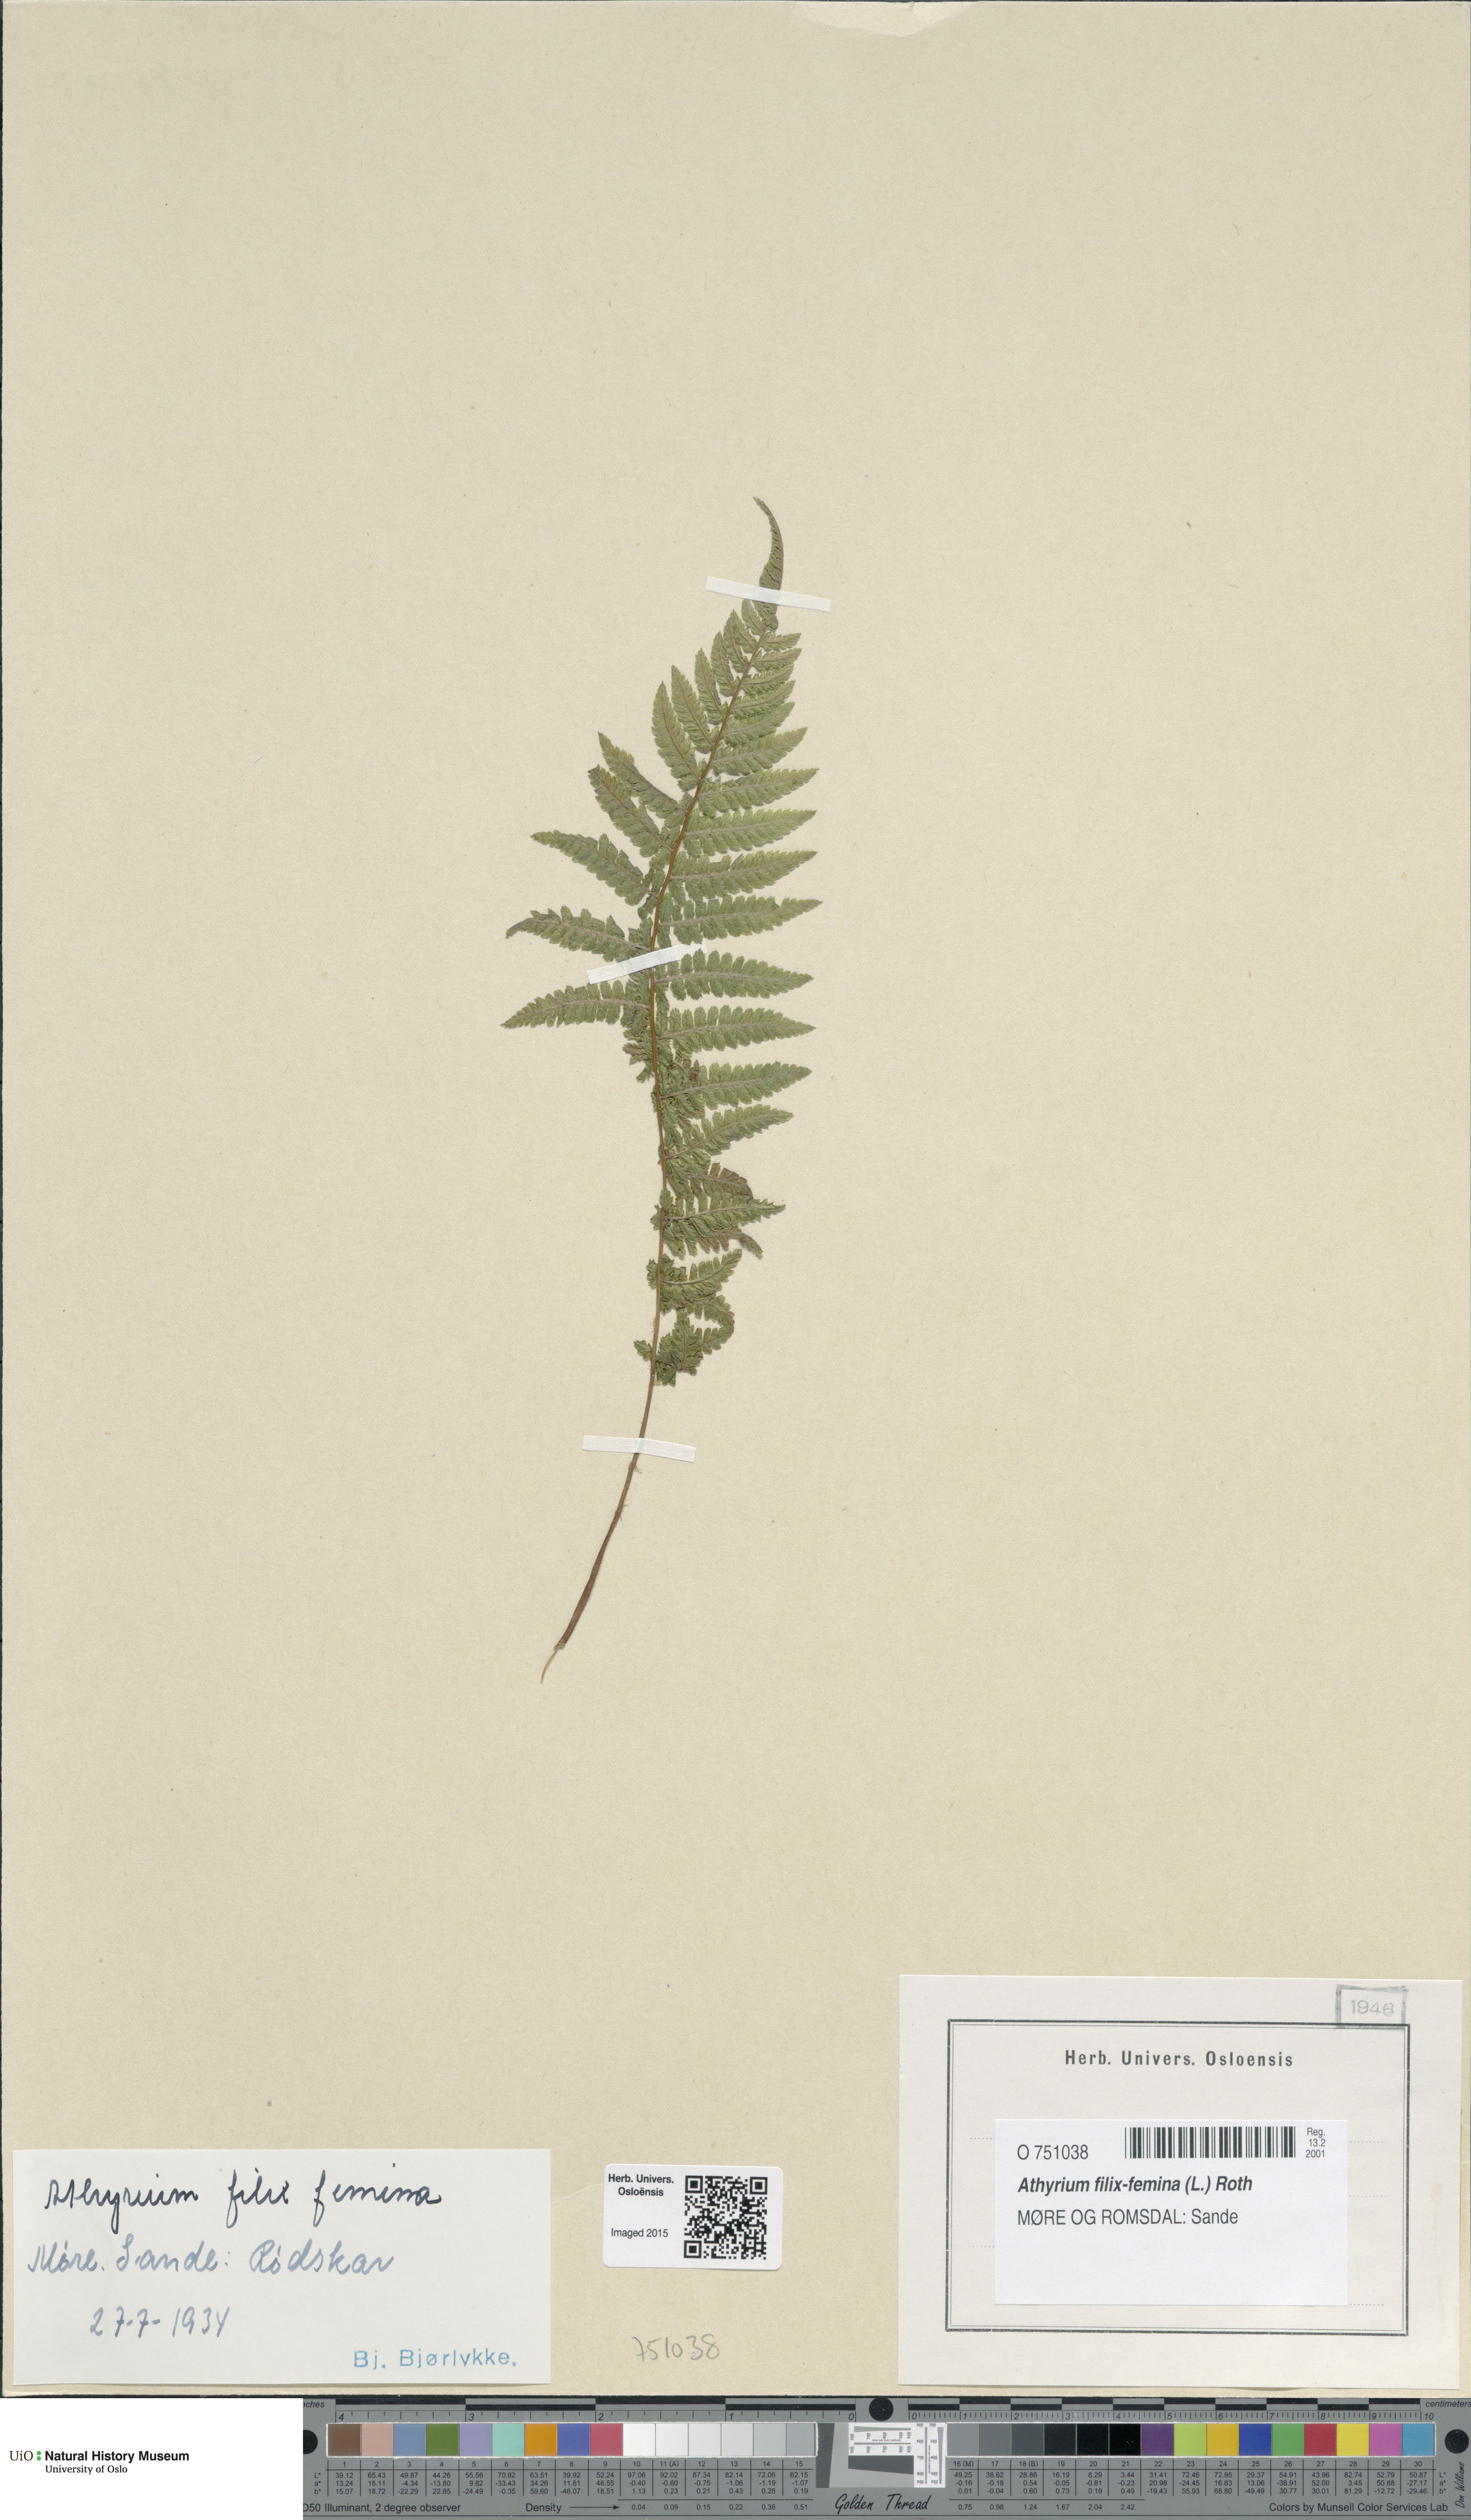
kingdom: Plantae
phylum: Tracheophyta
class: Polypodiopsida
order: Polypodiales
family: Athyriaceae
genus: Athyrium
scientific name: Athyrium filix-femina
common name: Lady fern
